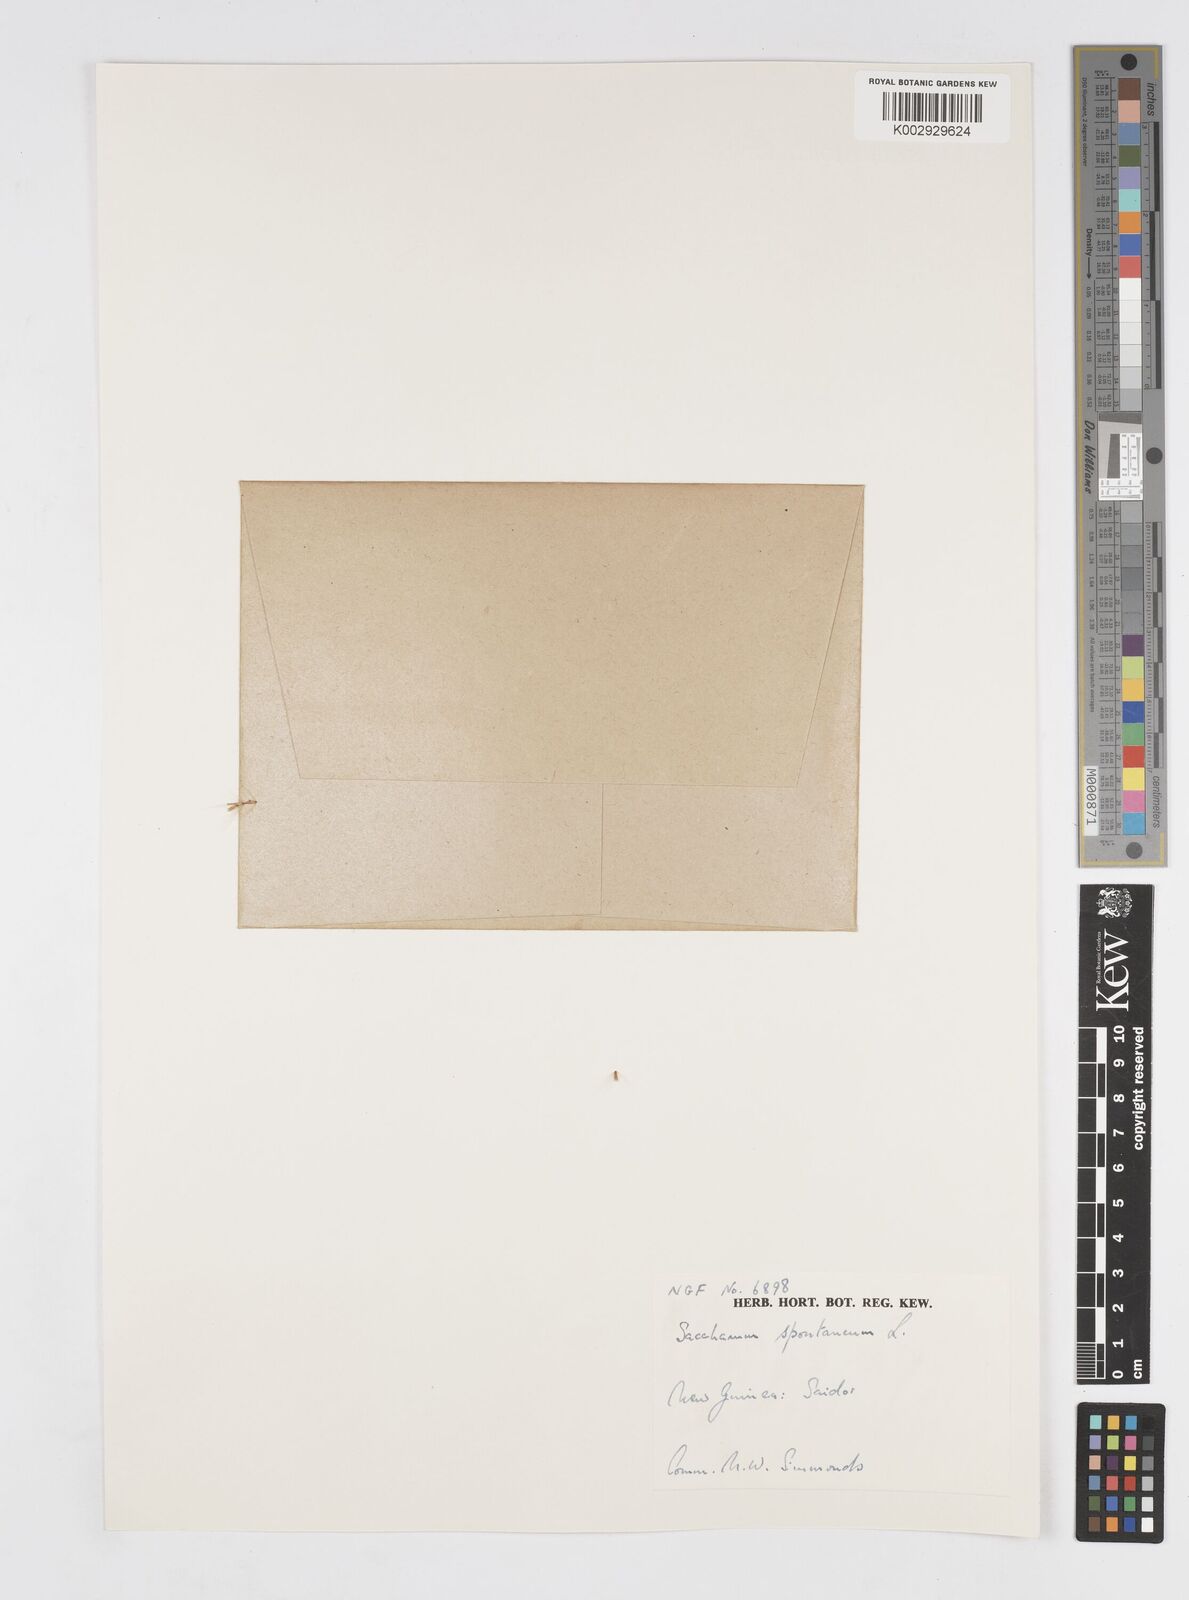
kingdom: Plantae
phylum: Tracheophyta
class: Liliopsida
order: Poales
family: Poaceae
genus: Saccharum
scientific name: Saccharum spontaneum
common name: Wild sugarcane
